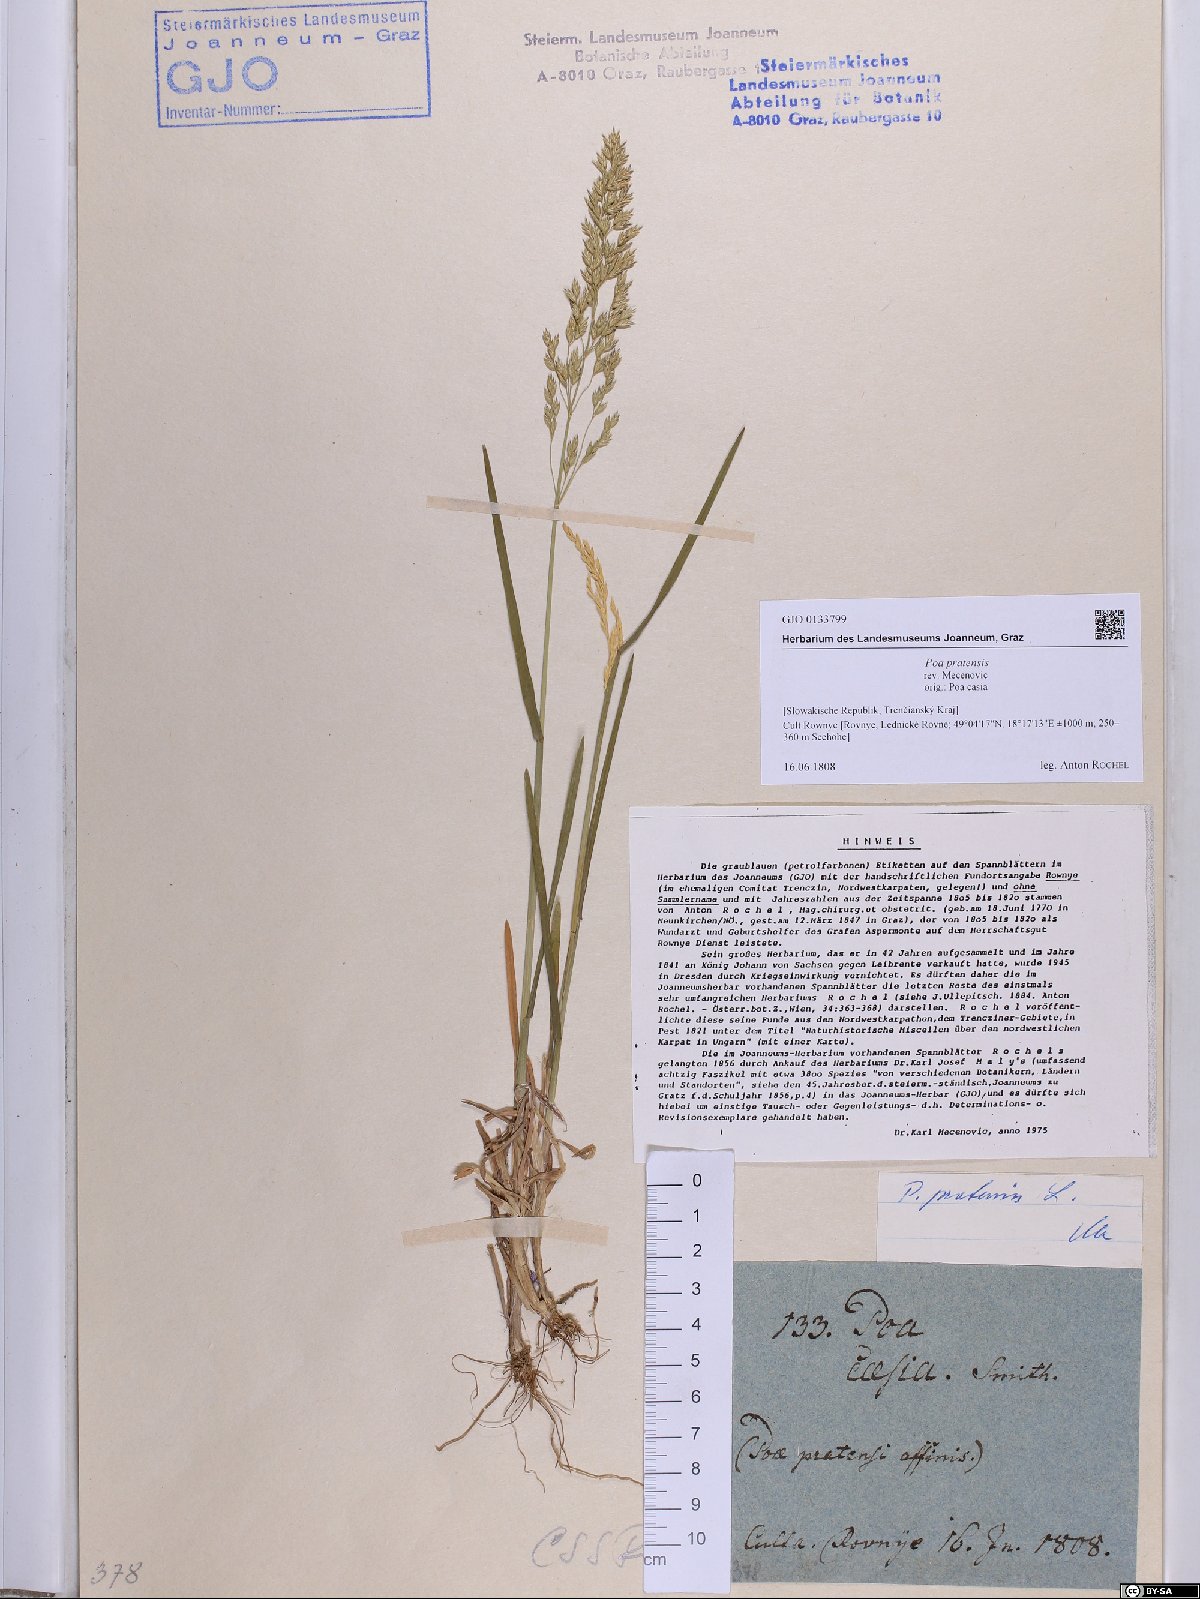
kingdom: Plantae
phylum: Tracheophyta
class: Liliopsida
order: Poales
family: Poaceae
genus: Poa
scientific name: Poa pratensis
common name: Kentucky bluegrass
